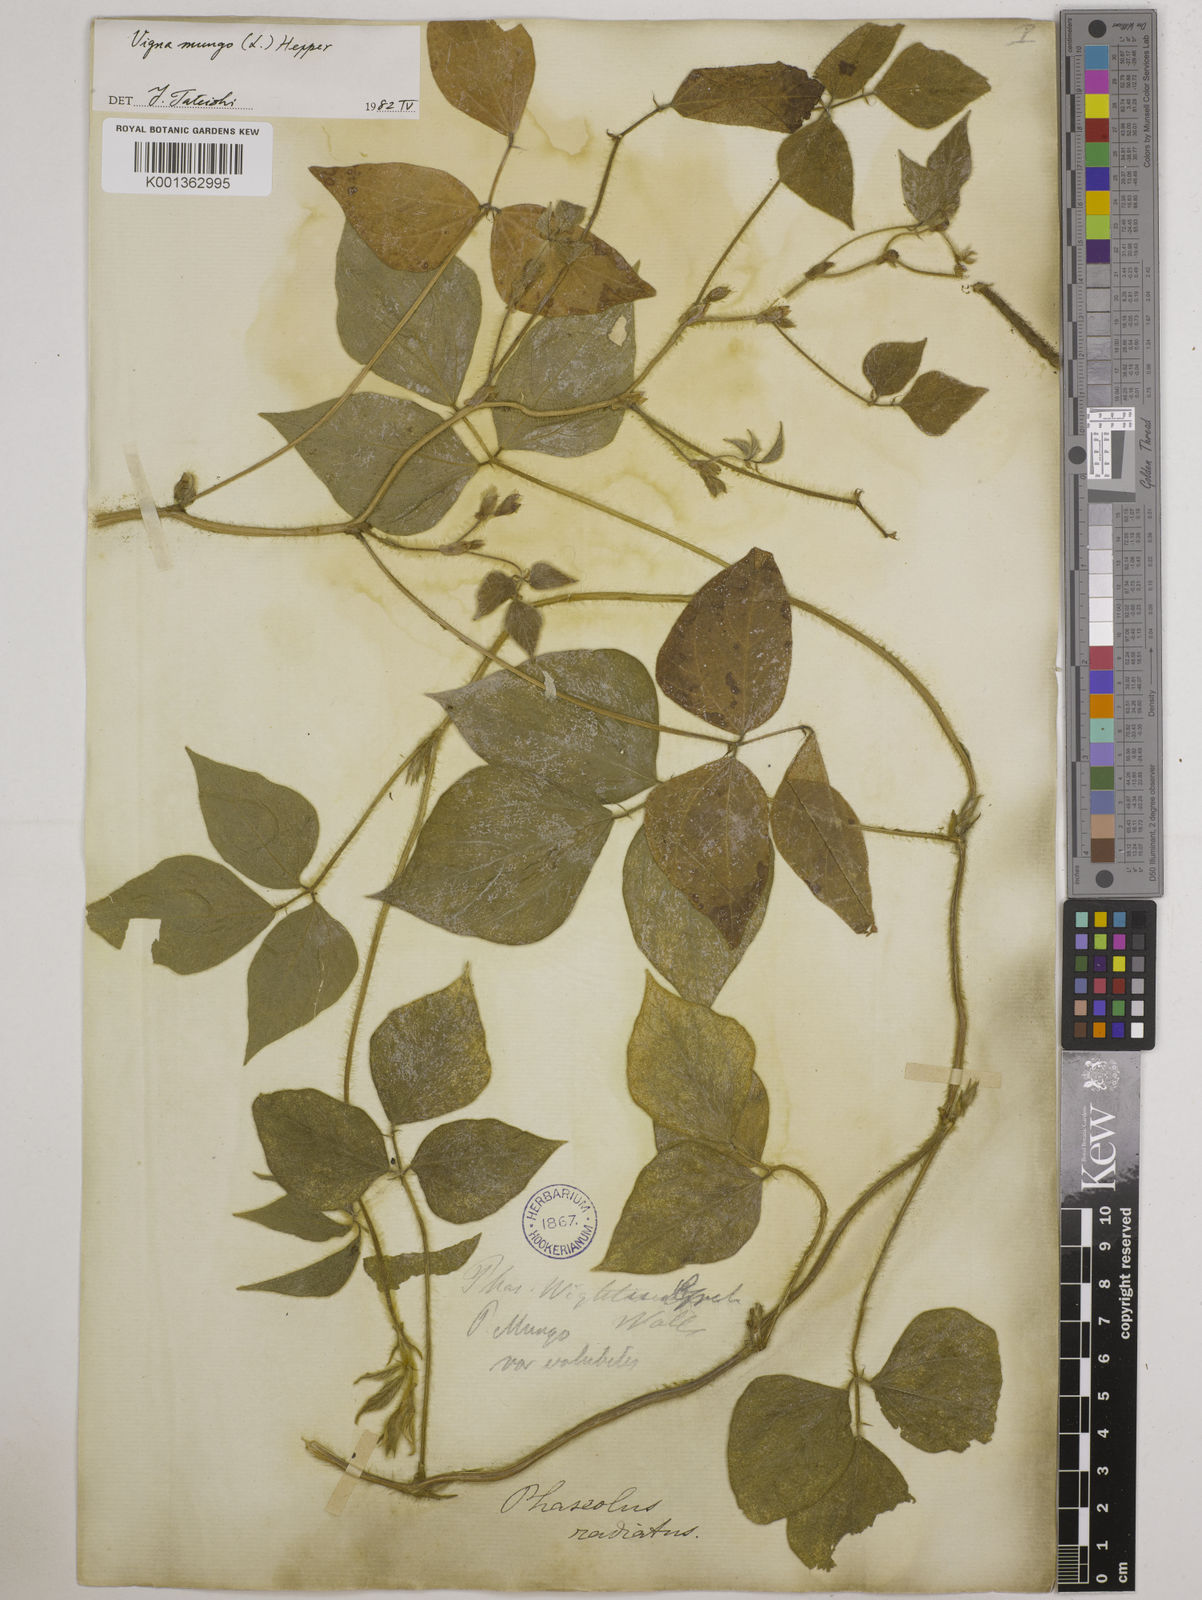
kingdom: Plantae
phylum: Tracheophyta
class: Magnoliopsida
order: Fabales
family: Fabaceae
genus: Vigna
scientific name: Vigna mungo
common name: Black gram
